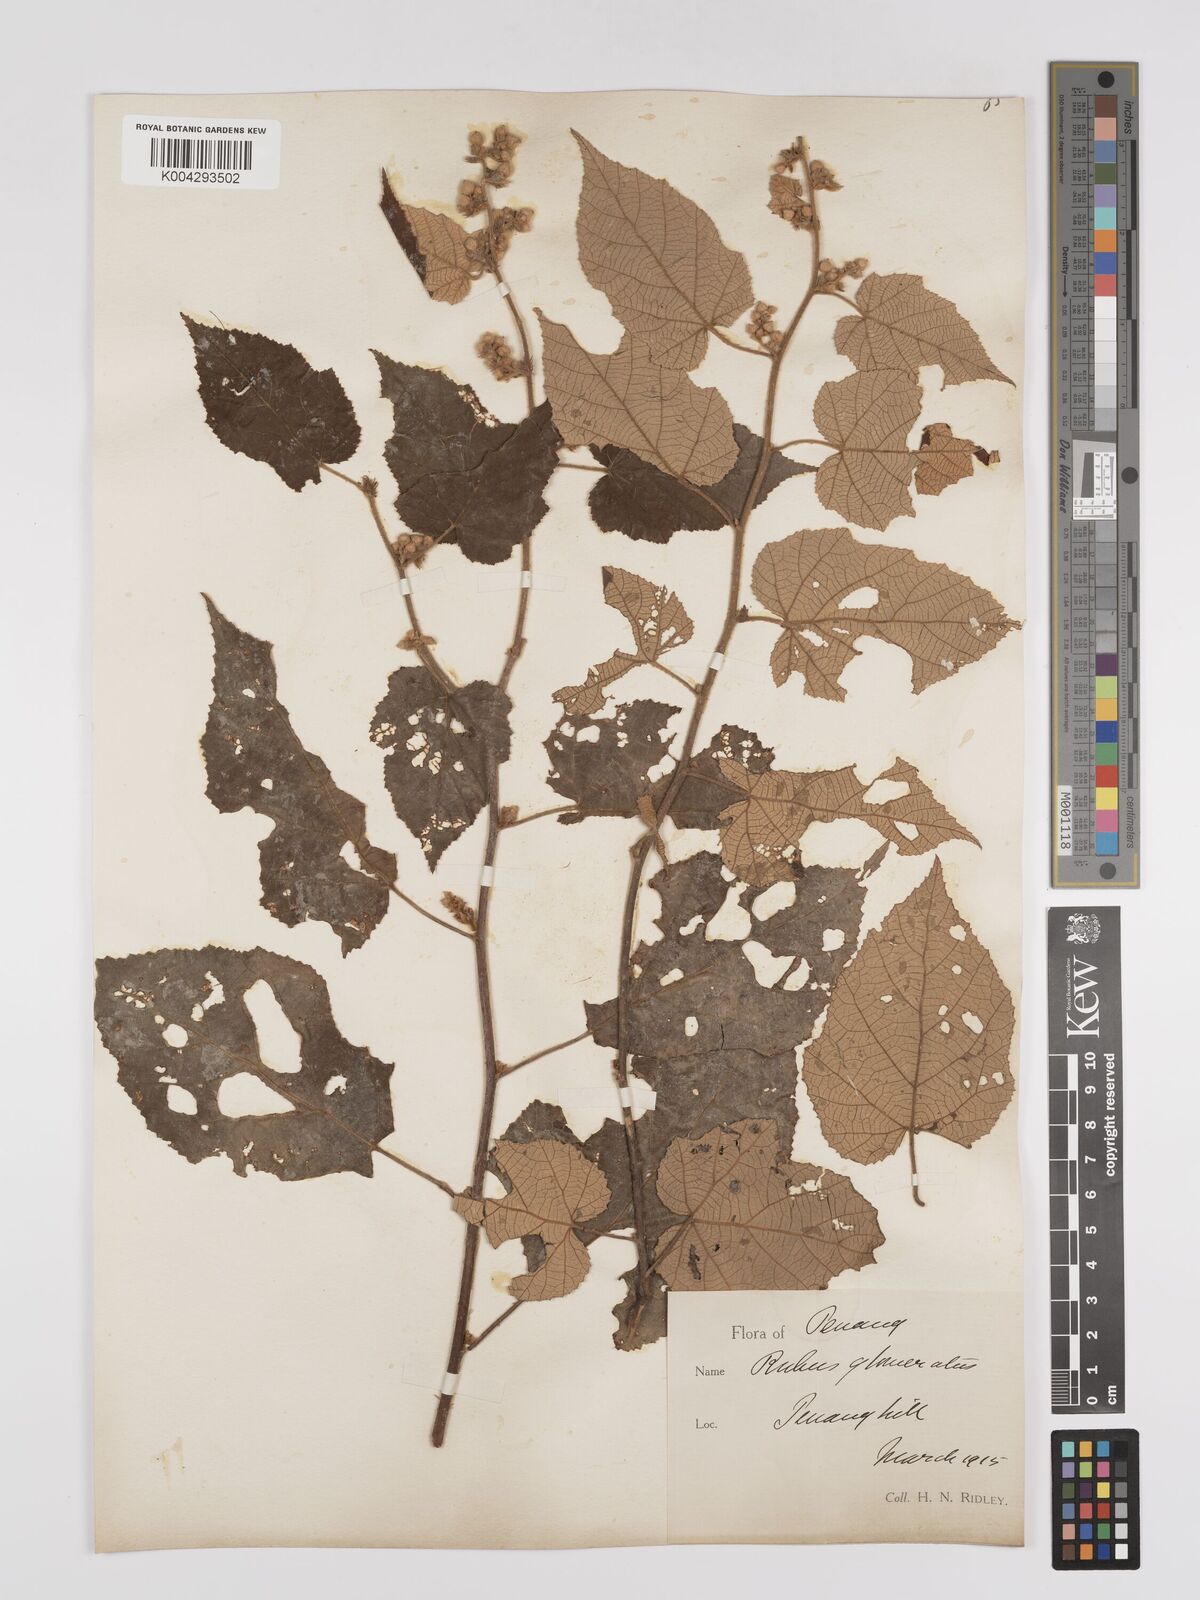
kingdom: Plantae
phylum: Tracheophyta
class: Magnoliopsida
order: Rosales
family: Rosaceae
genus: Rubus
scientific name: Rubus moluccanus
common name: Wild raspberry
